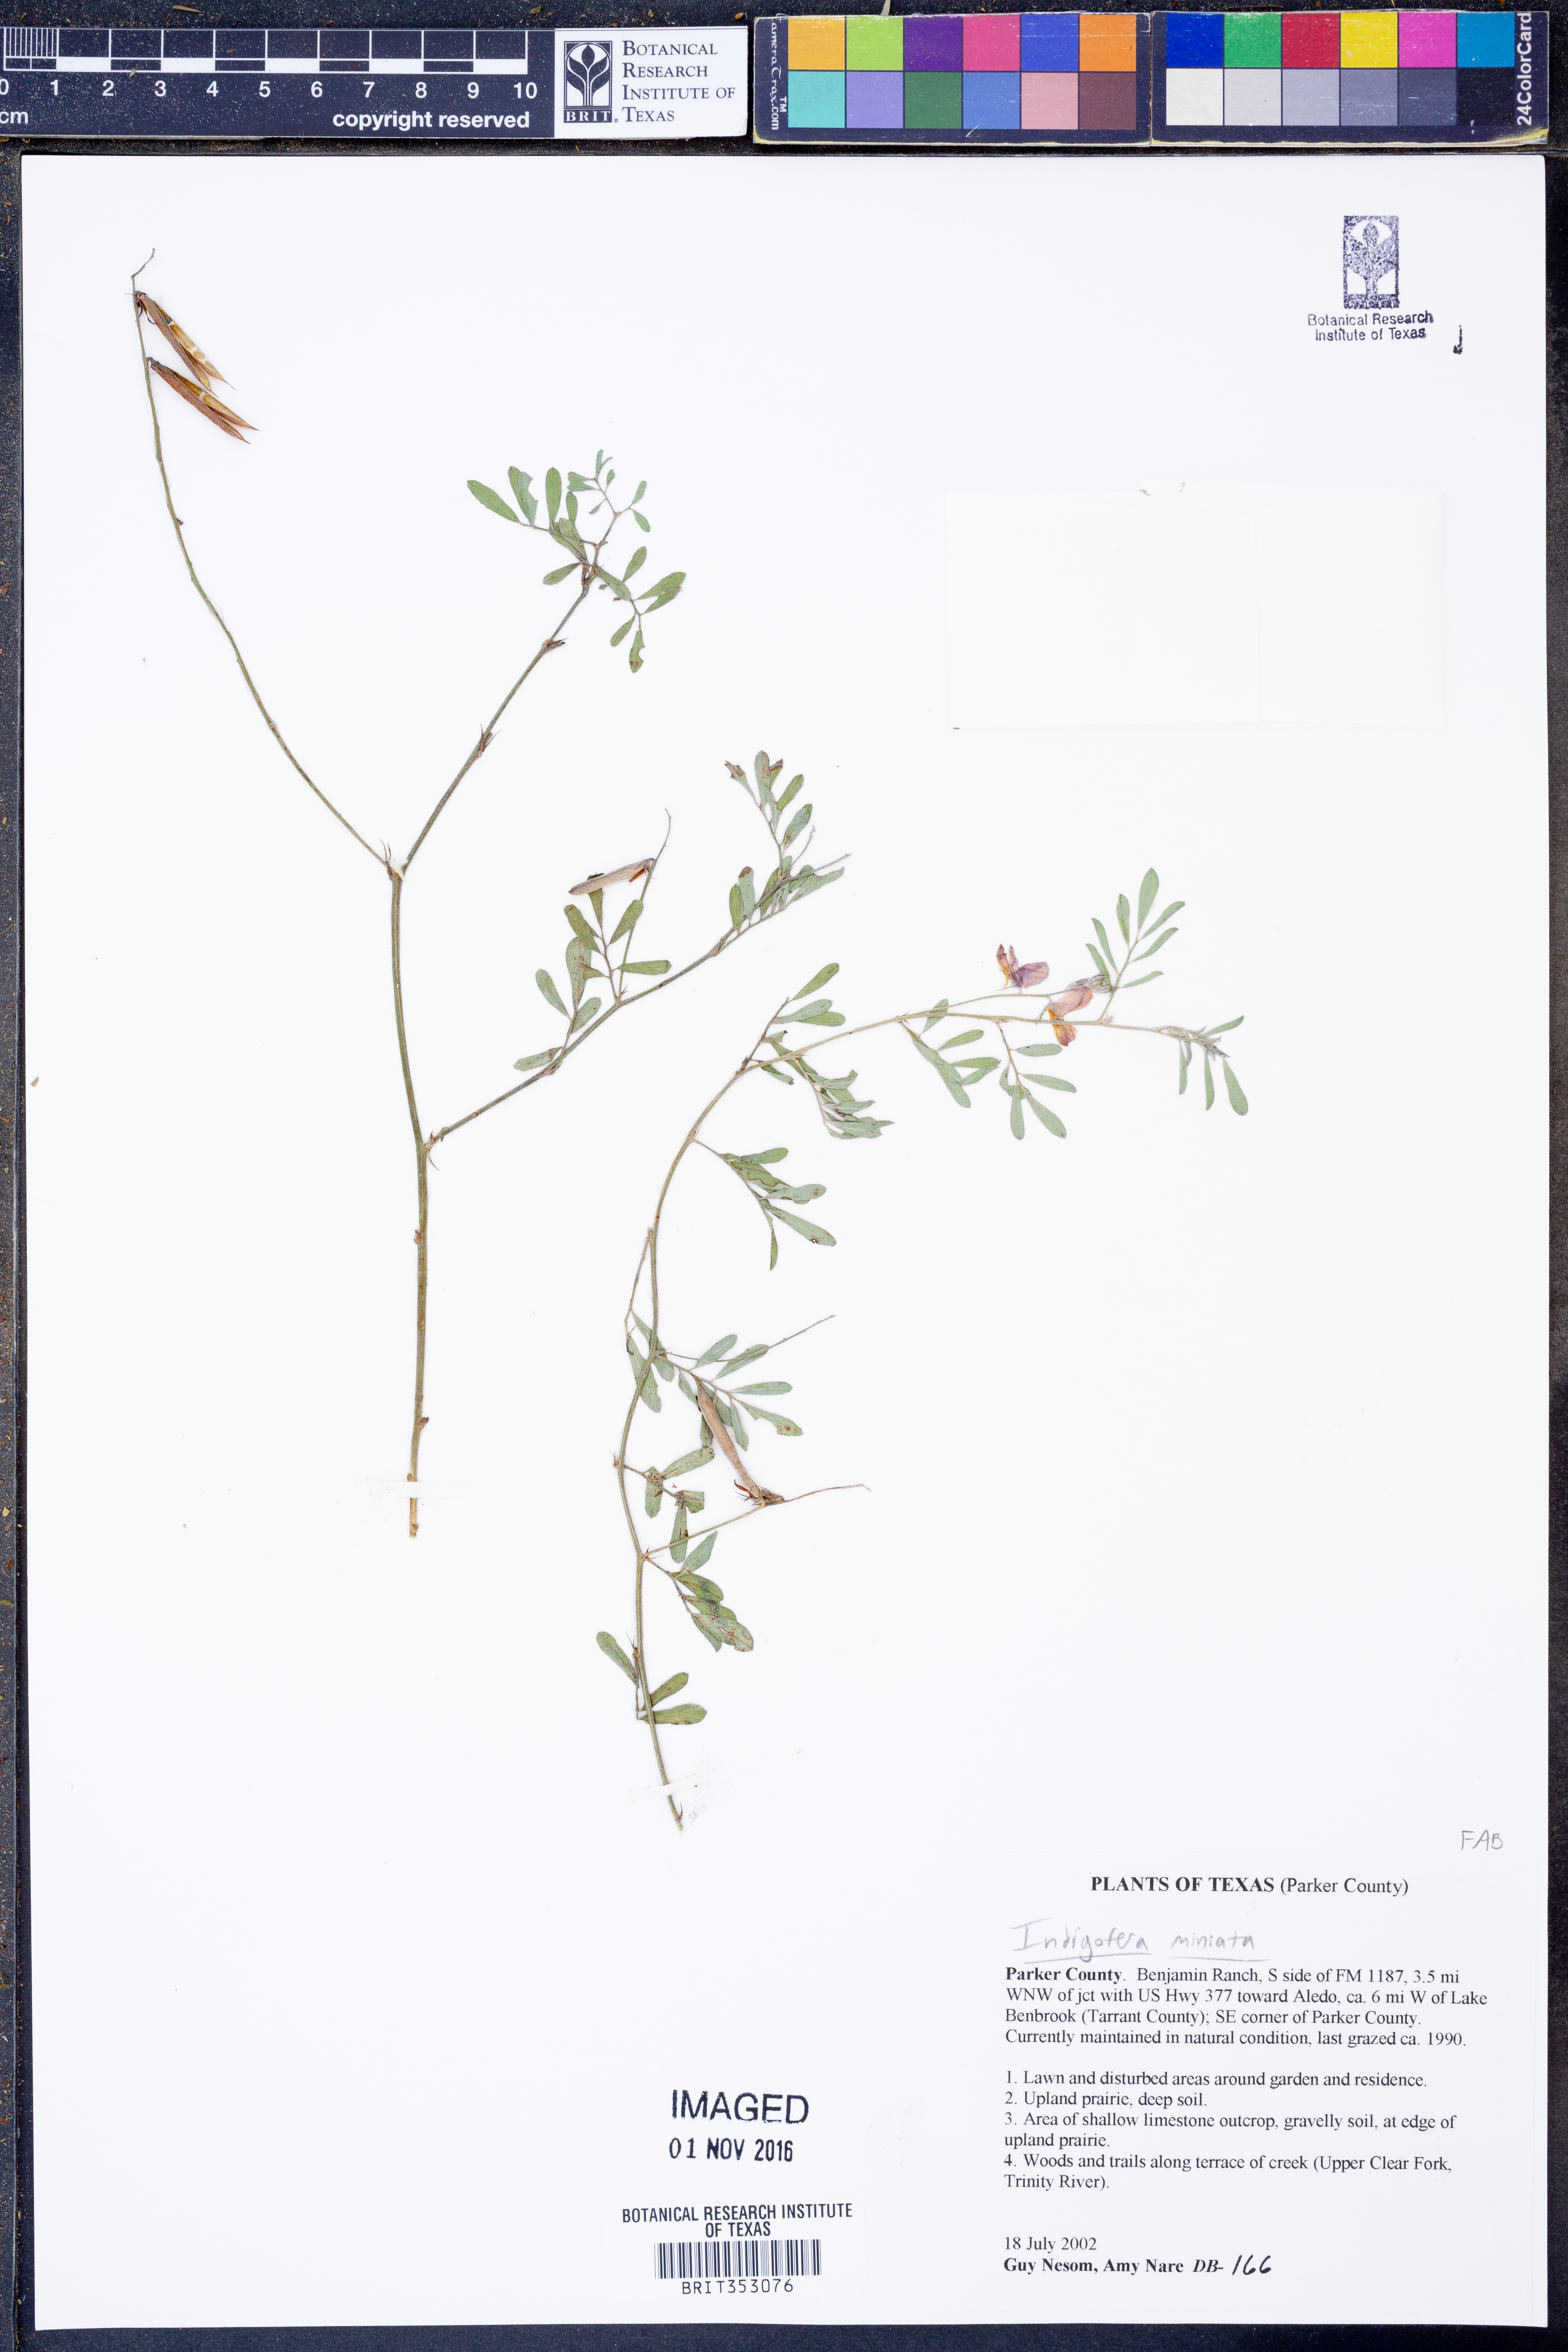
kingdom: Plantae
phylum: Tracheophyta
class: Magnoliopsida
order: Fabales
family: Fabaceae
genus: Indigofera
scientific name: Indigofera miniata
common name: Coast indigo
